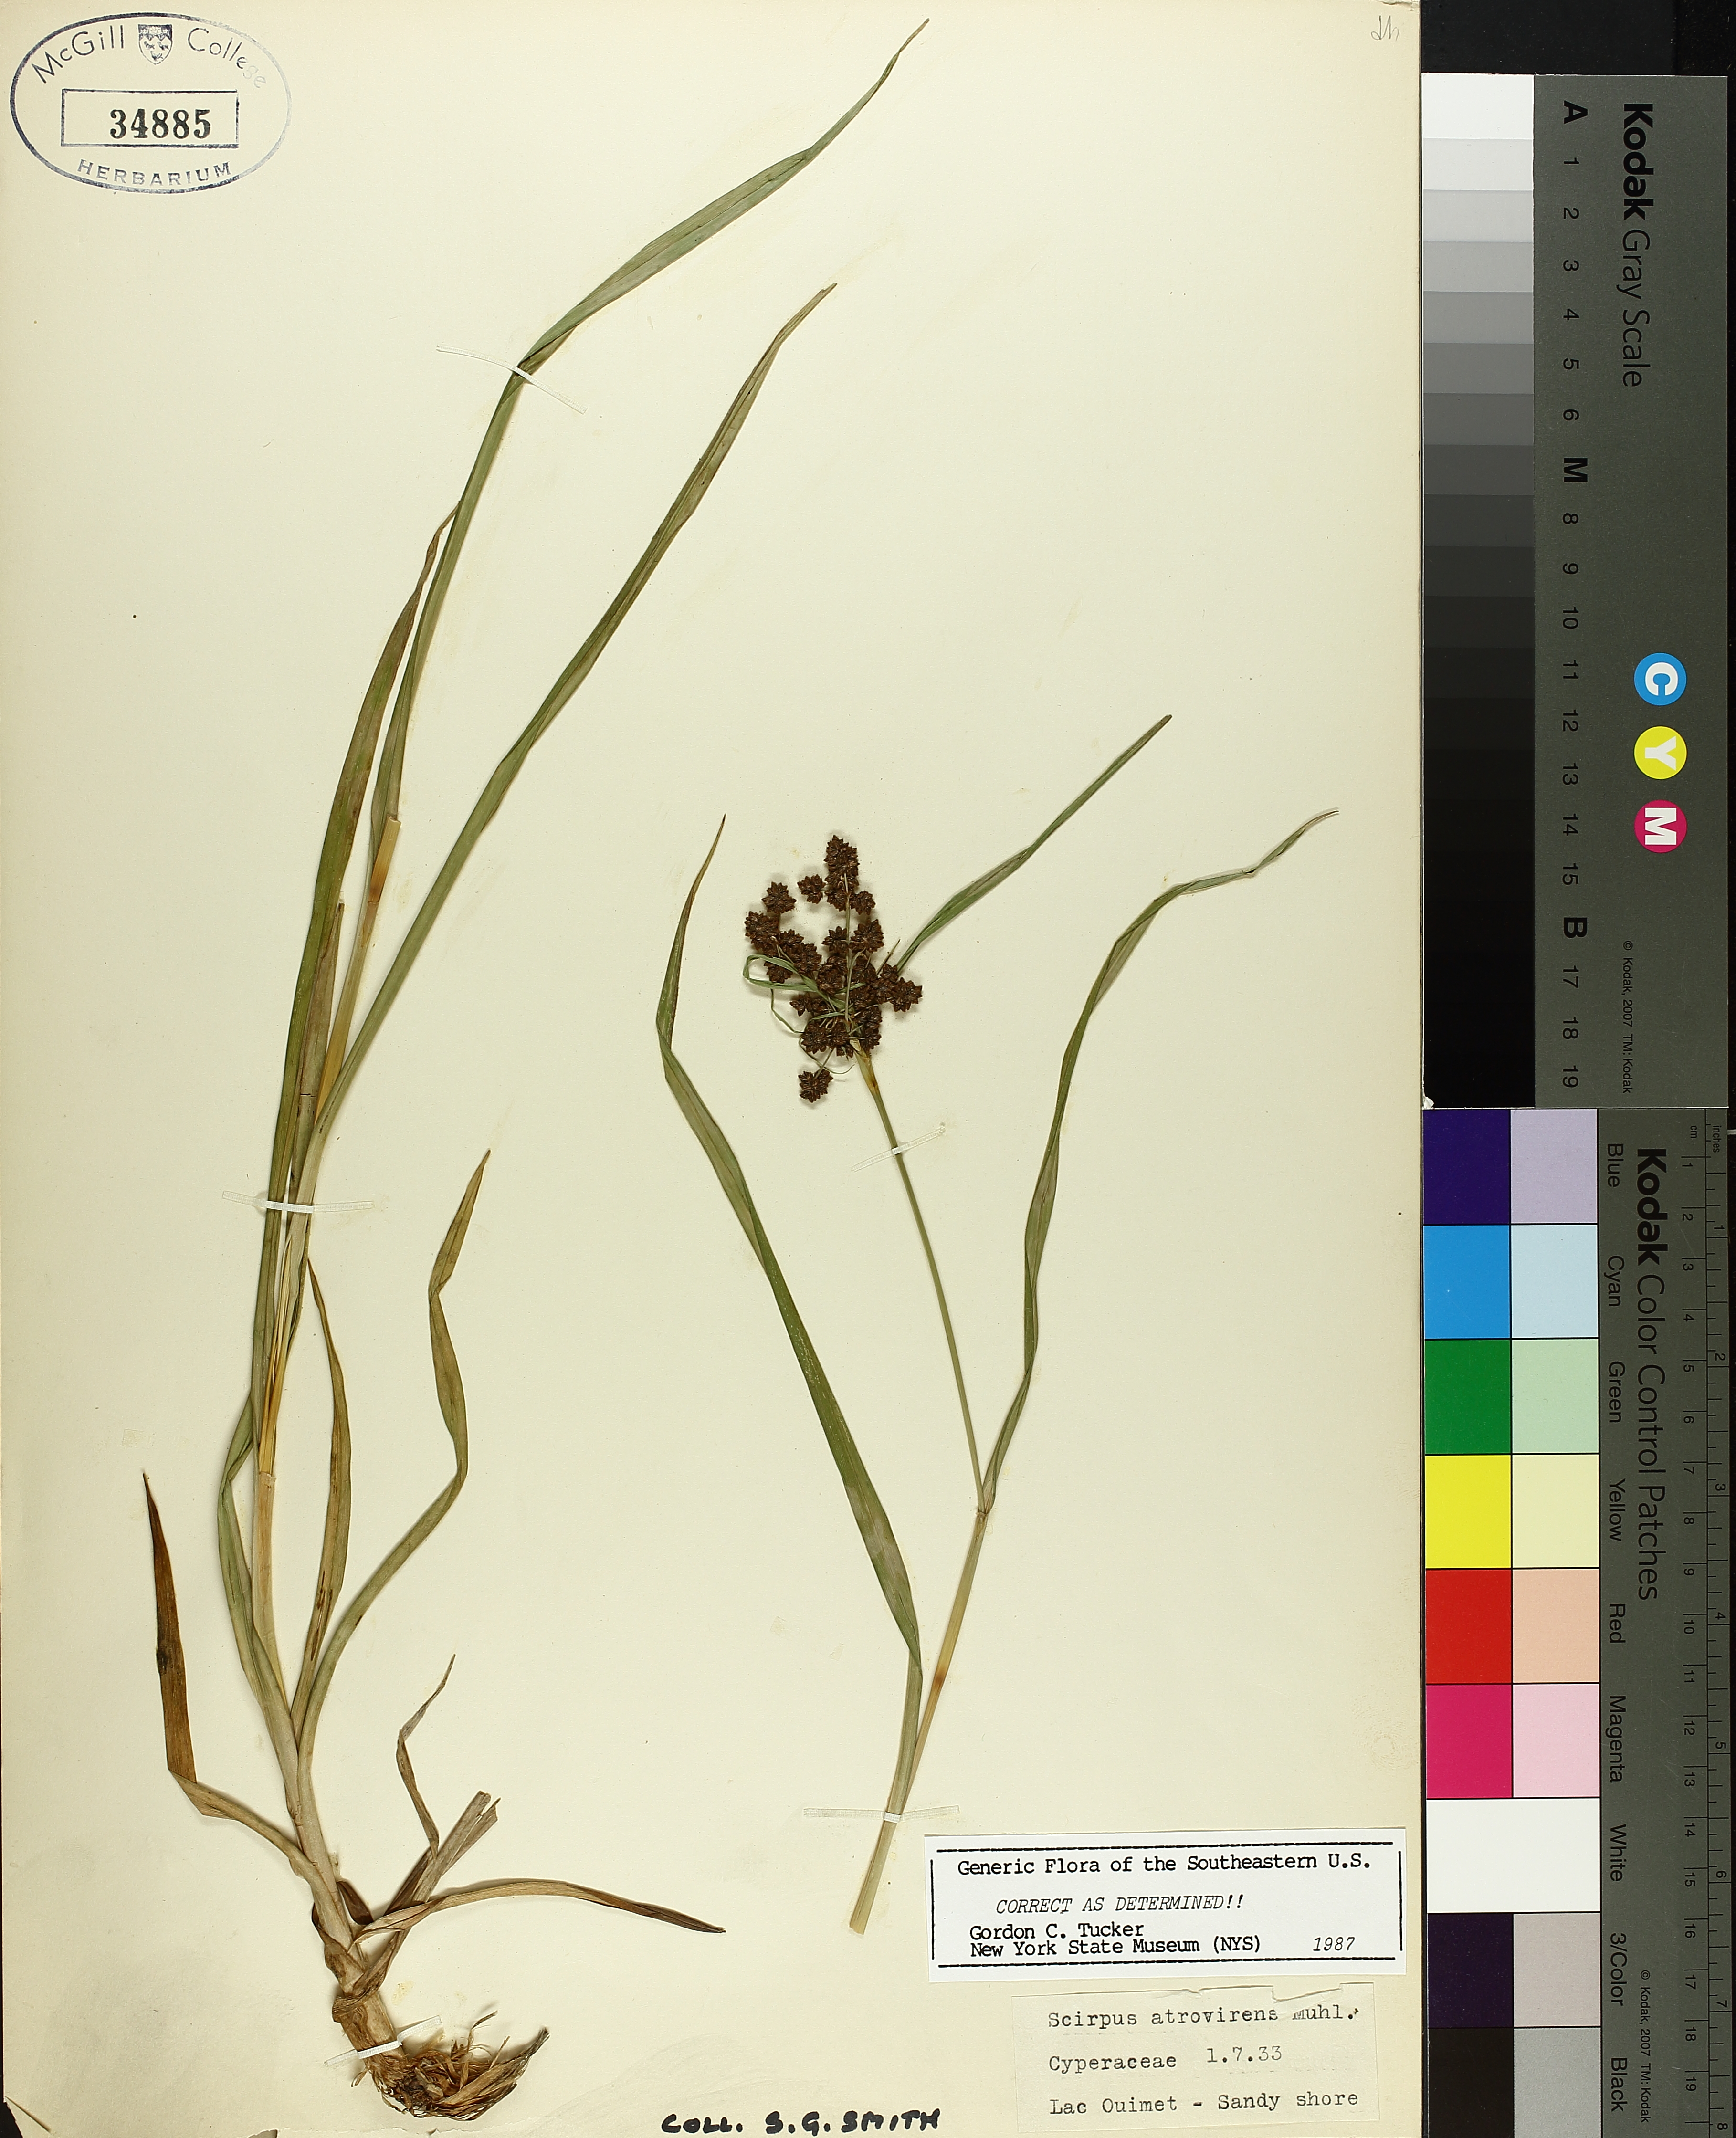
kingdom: Plantae
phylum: Tracheophyta
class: Liliopsida
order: Poales
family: Cyperaceae
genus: Scirpus
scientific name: Scirpus atrovirens
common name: Black bulrush
